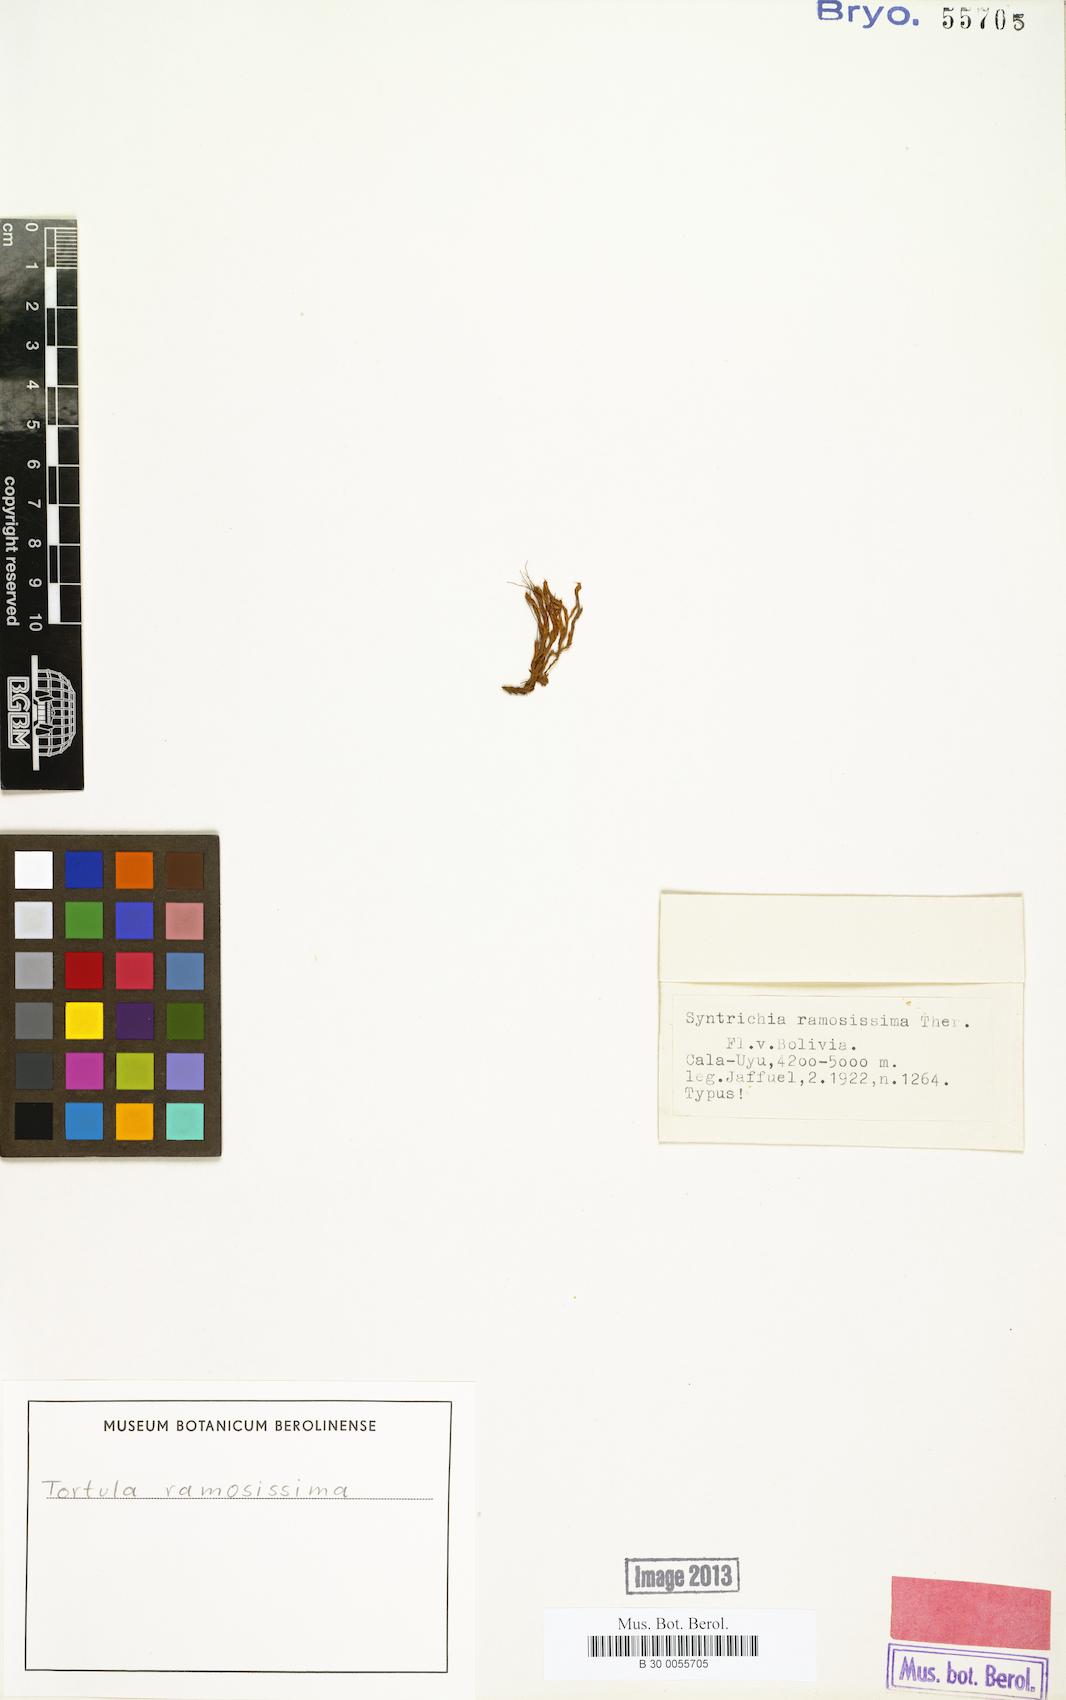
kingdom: Plantae
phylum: Bryophyta
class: Bryopsida
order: Pottiales
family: Pottiaceae
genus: Syntrichia
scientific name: Syntrichia ramosissima
